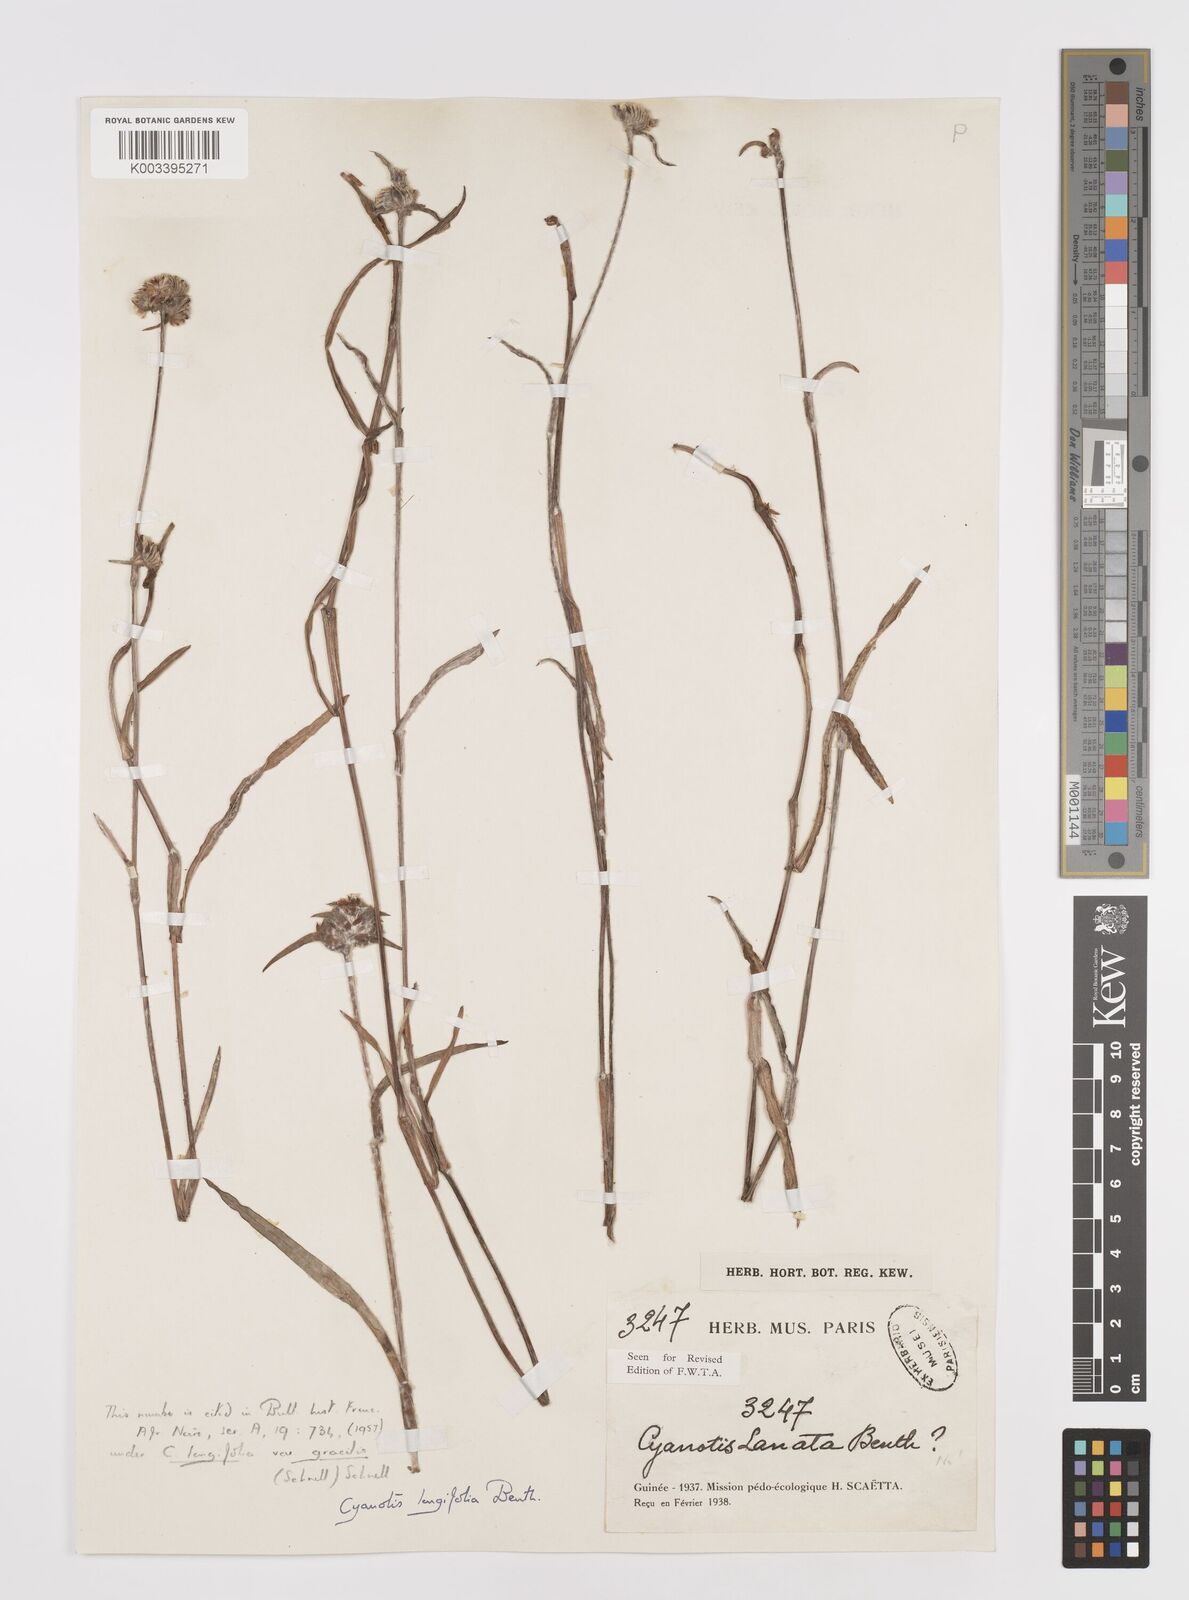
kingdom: Plantae
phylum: Tracheophyta
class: Liliopsida
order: Commelinales
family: Commelinaceae
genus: Cyanotis
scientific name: Cyanotis longifolia
